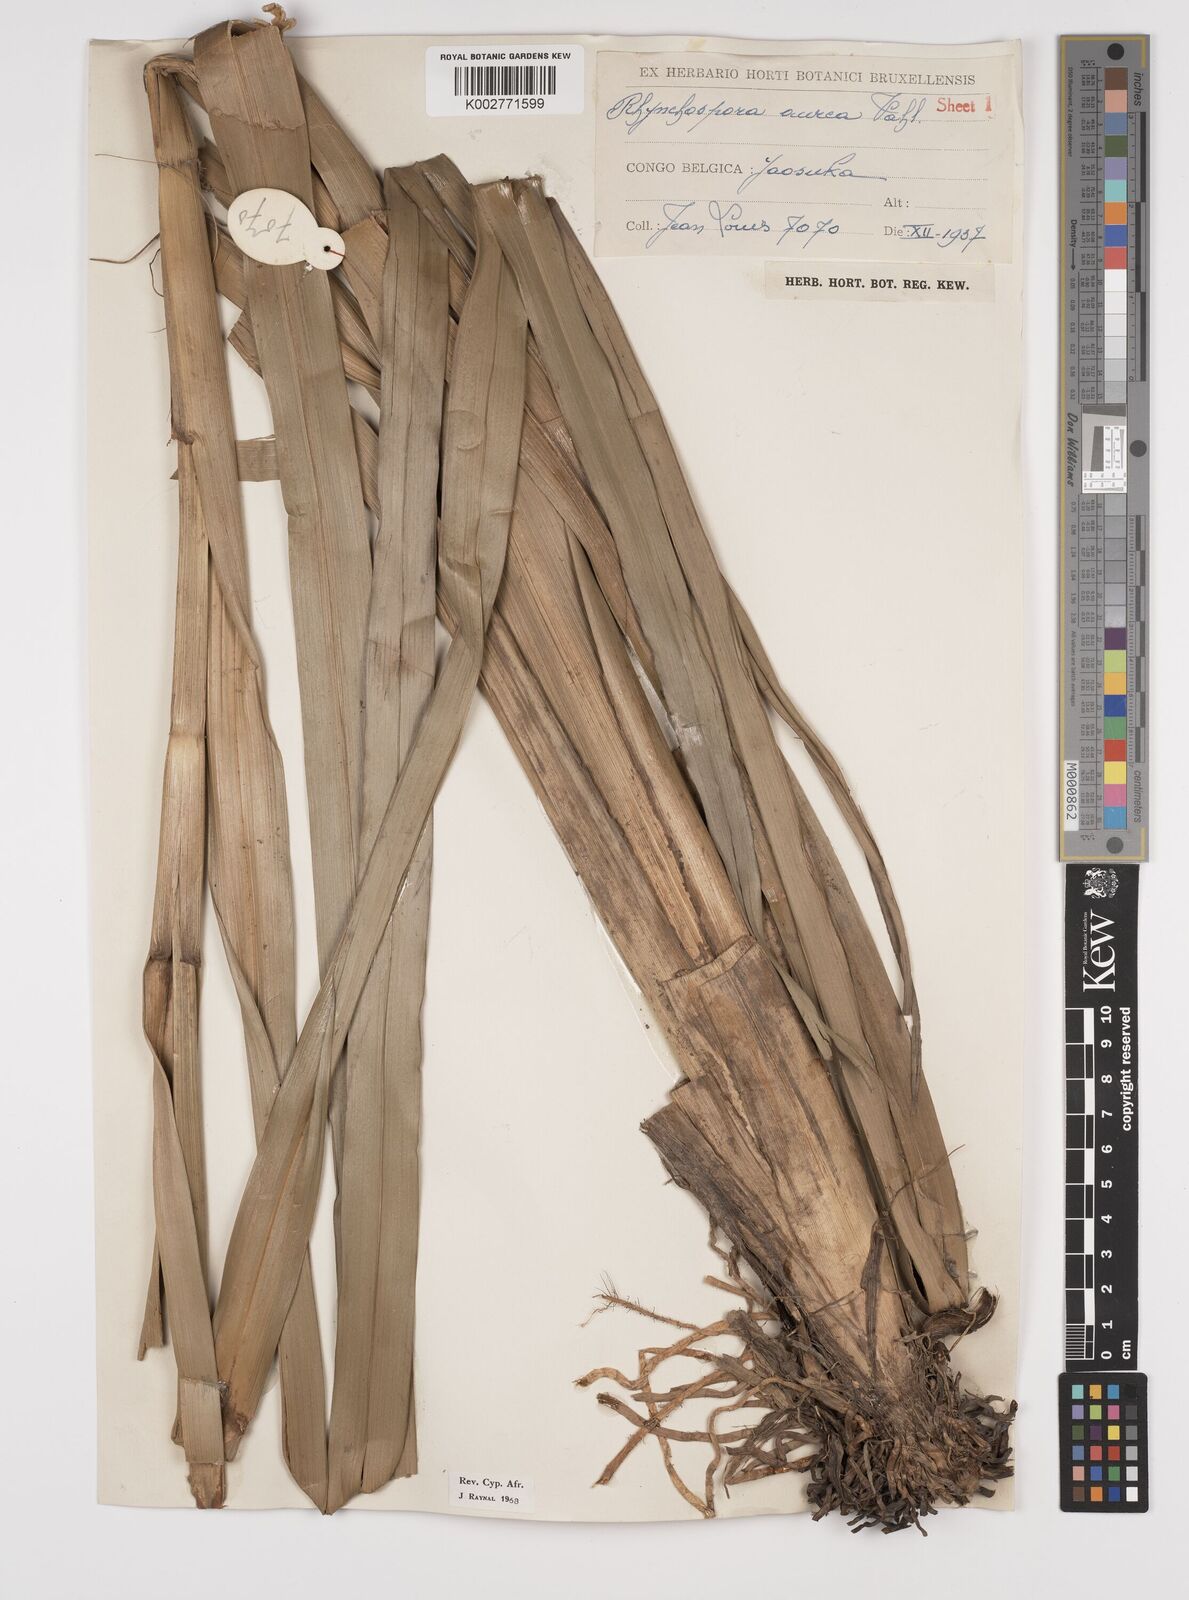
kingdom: Plantae
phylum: Tracheophyta
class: Liliopsida
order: Poales
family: Cyperaceae
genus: Rhynchospora
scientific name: Rhynchospora corymbosa
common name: Golden beak sedge
